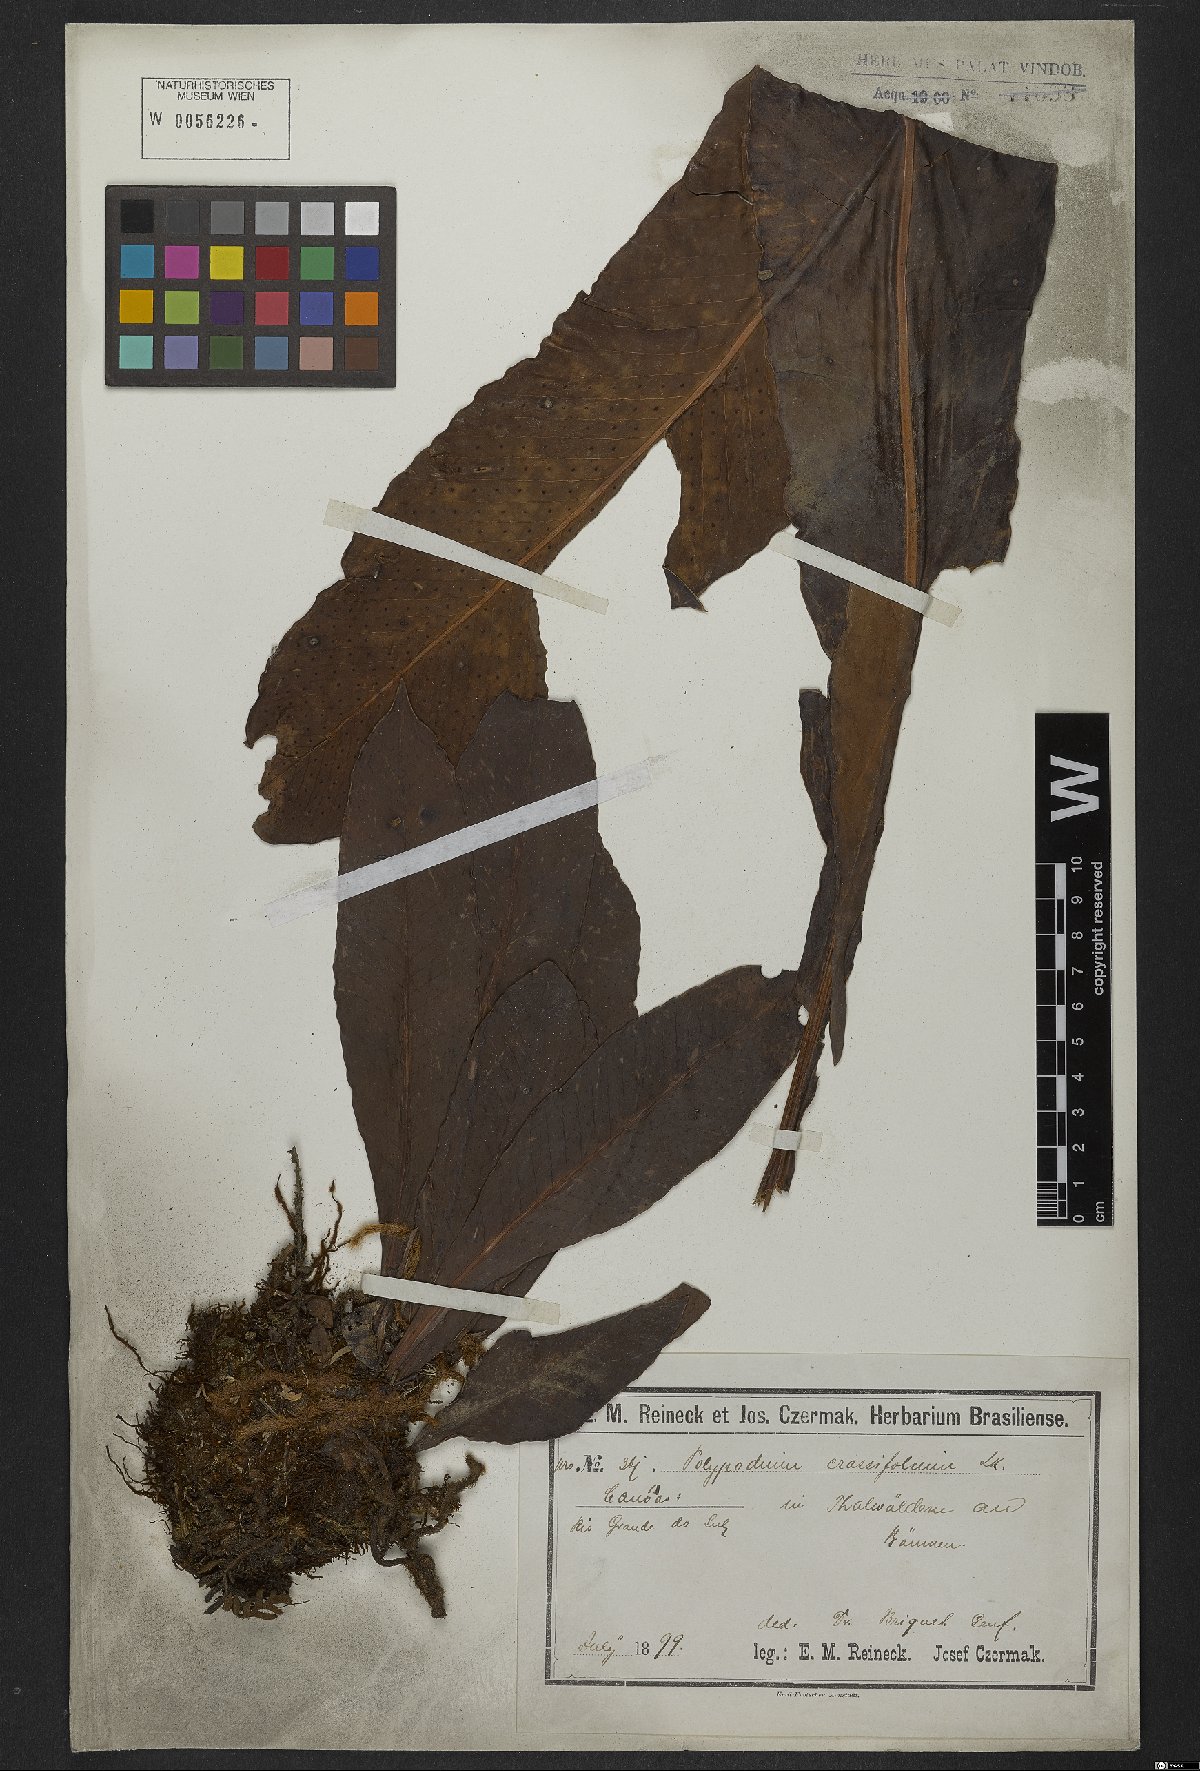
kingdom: Plantae
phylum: Tracheophyta
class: Polypodiopsida
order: Polypodiales
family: Polypodiaceae
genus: Niphidium
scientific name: Niphidium crassifolium
